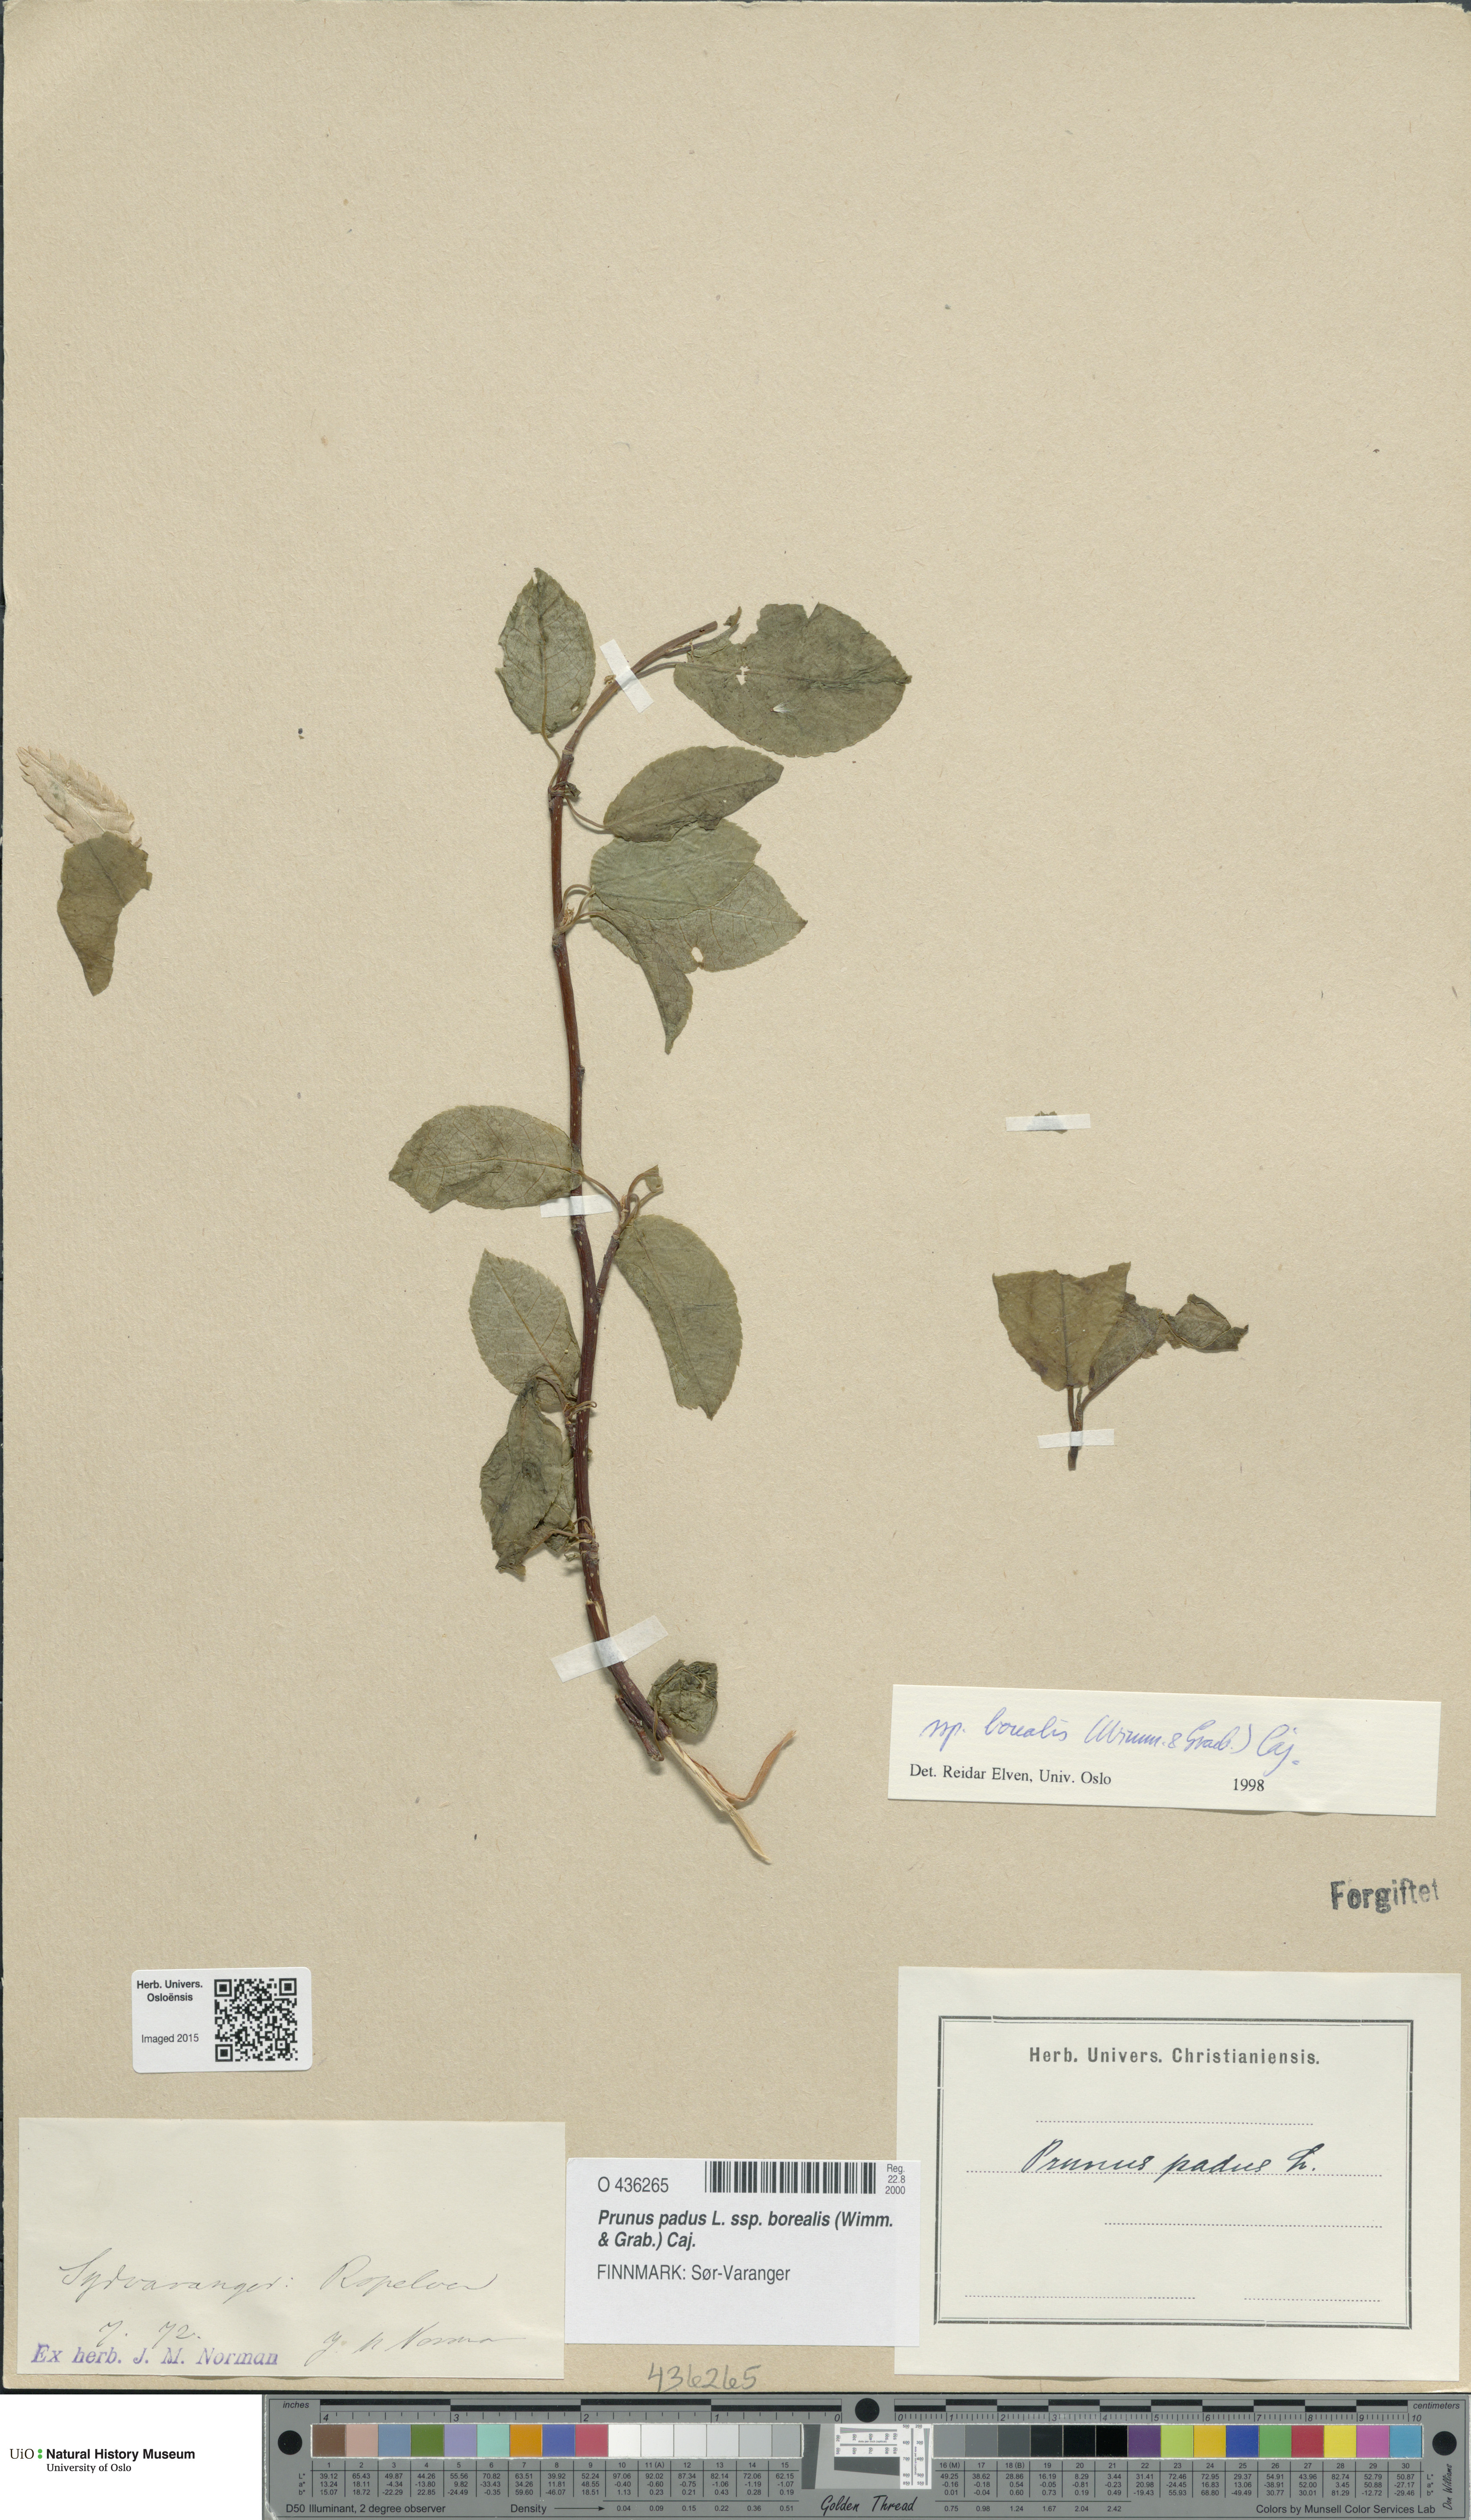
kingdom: Plantae
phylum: Tracheophyta
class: Magnoliopsida
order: Rosales
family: Rosaceae
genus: Prunus
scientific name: Prunus padus
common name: Bird cherry
